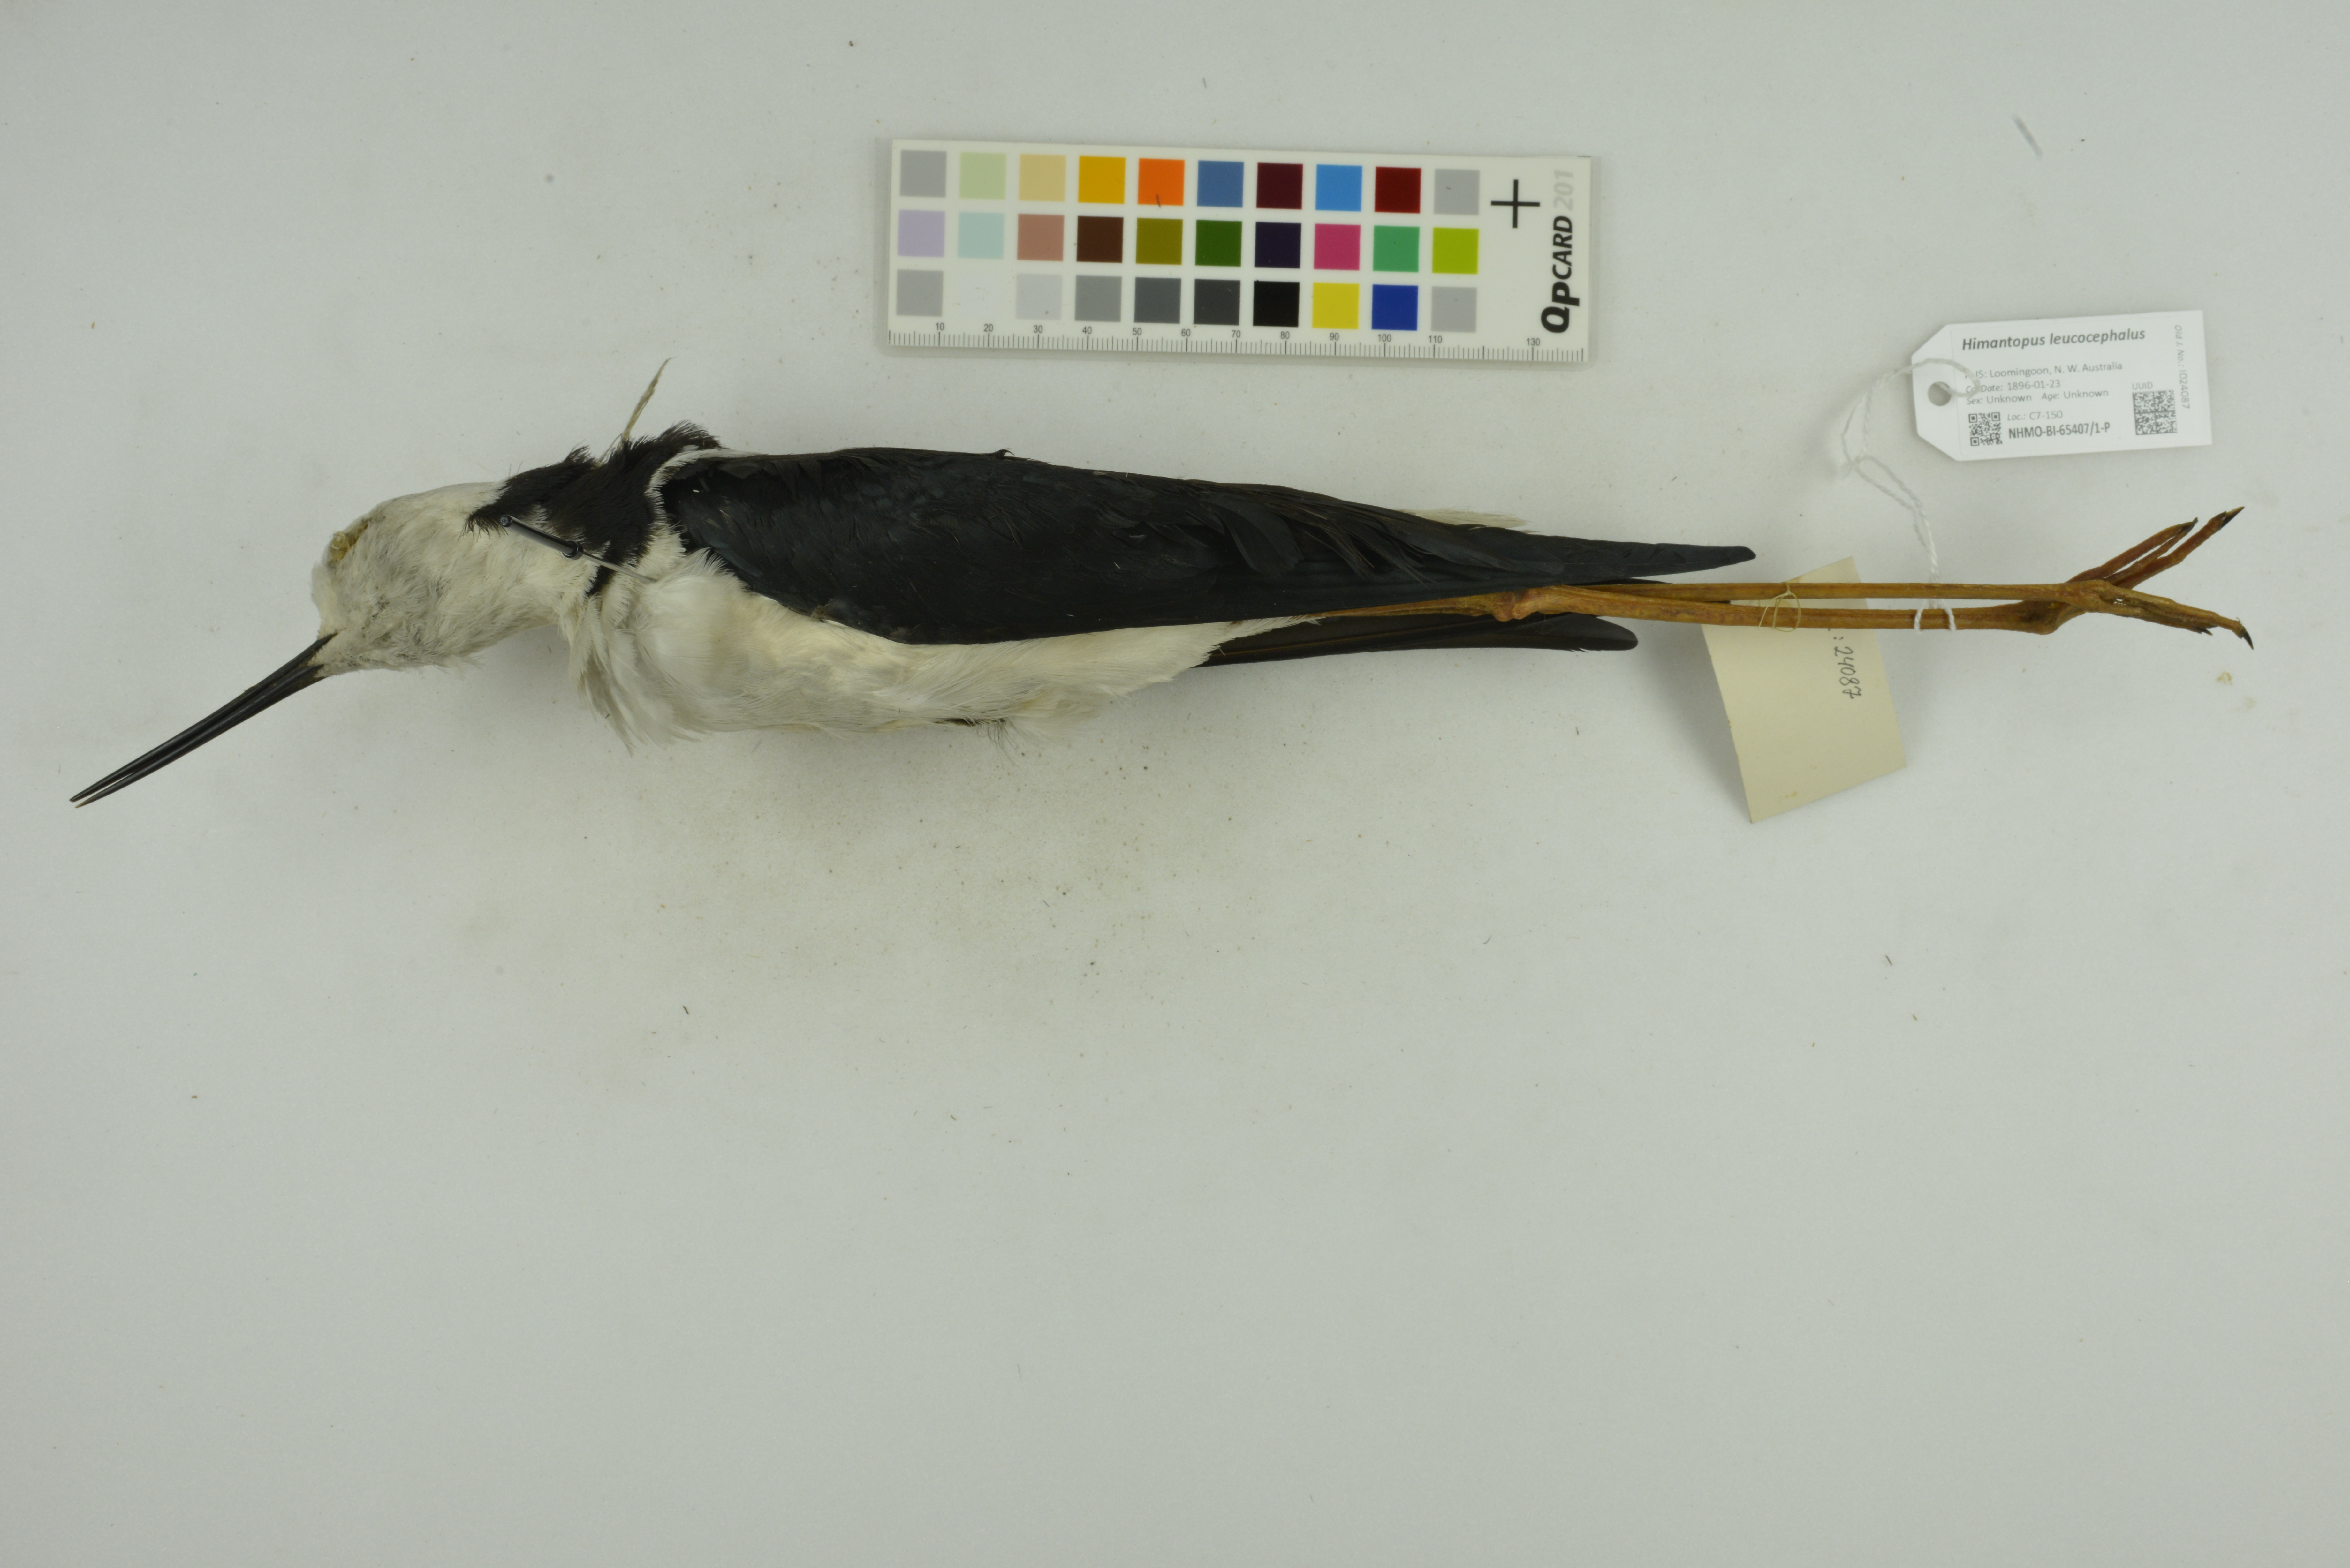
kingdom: Animalia
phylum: Chordata
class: Aves
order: Charadriiformes
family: Recurvirostridae
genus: Himantopus
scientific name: Himantopus leucocephalus
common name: White-headed stilt
